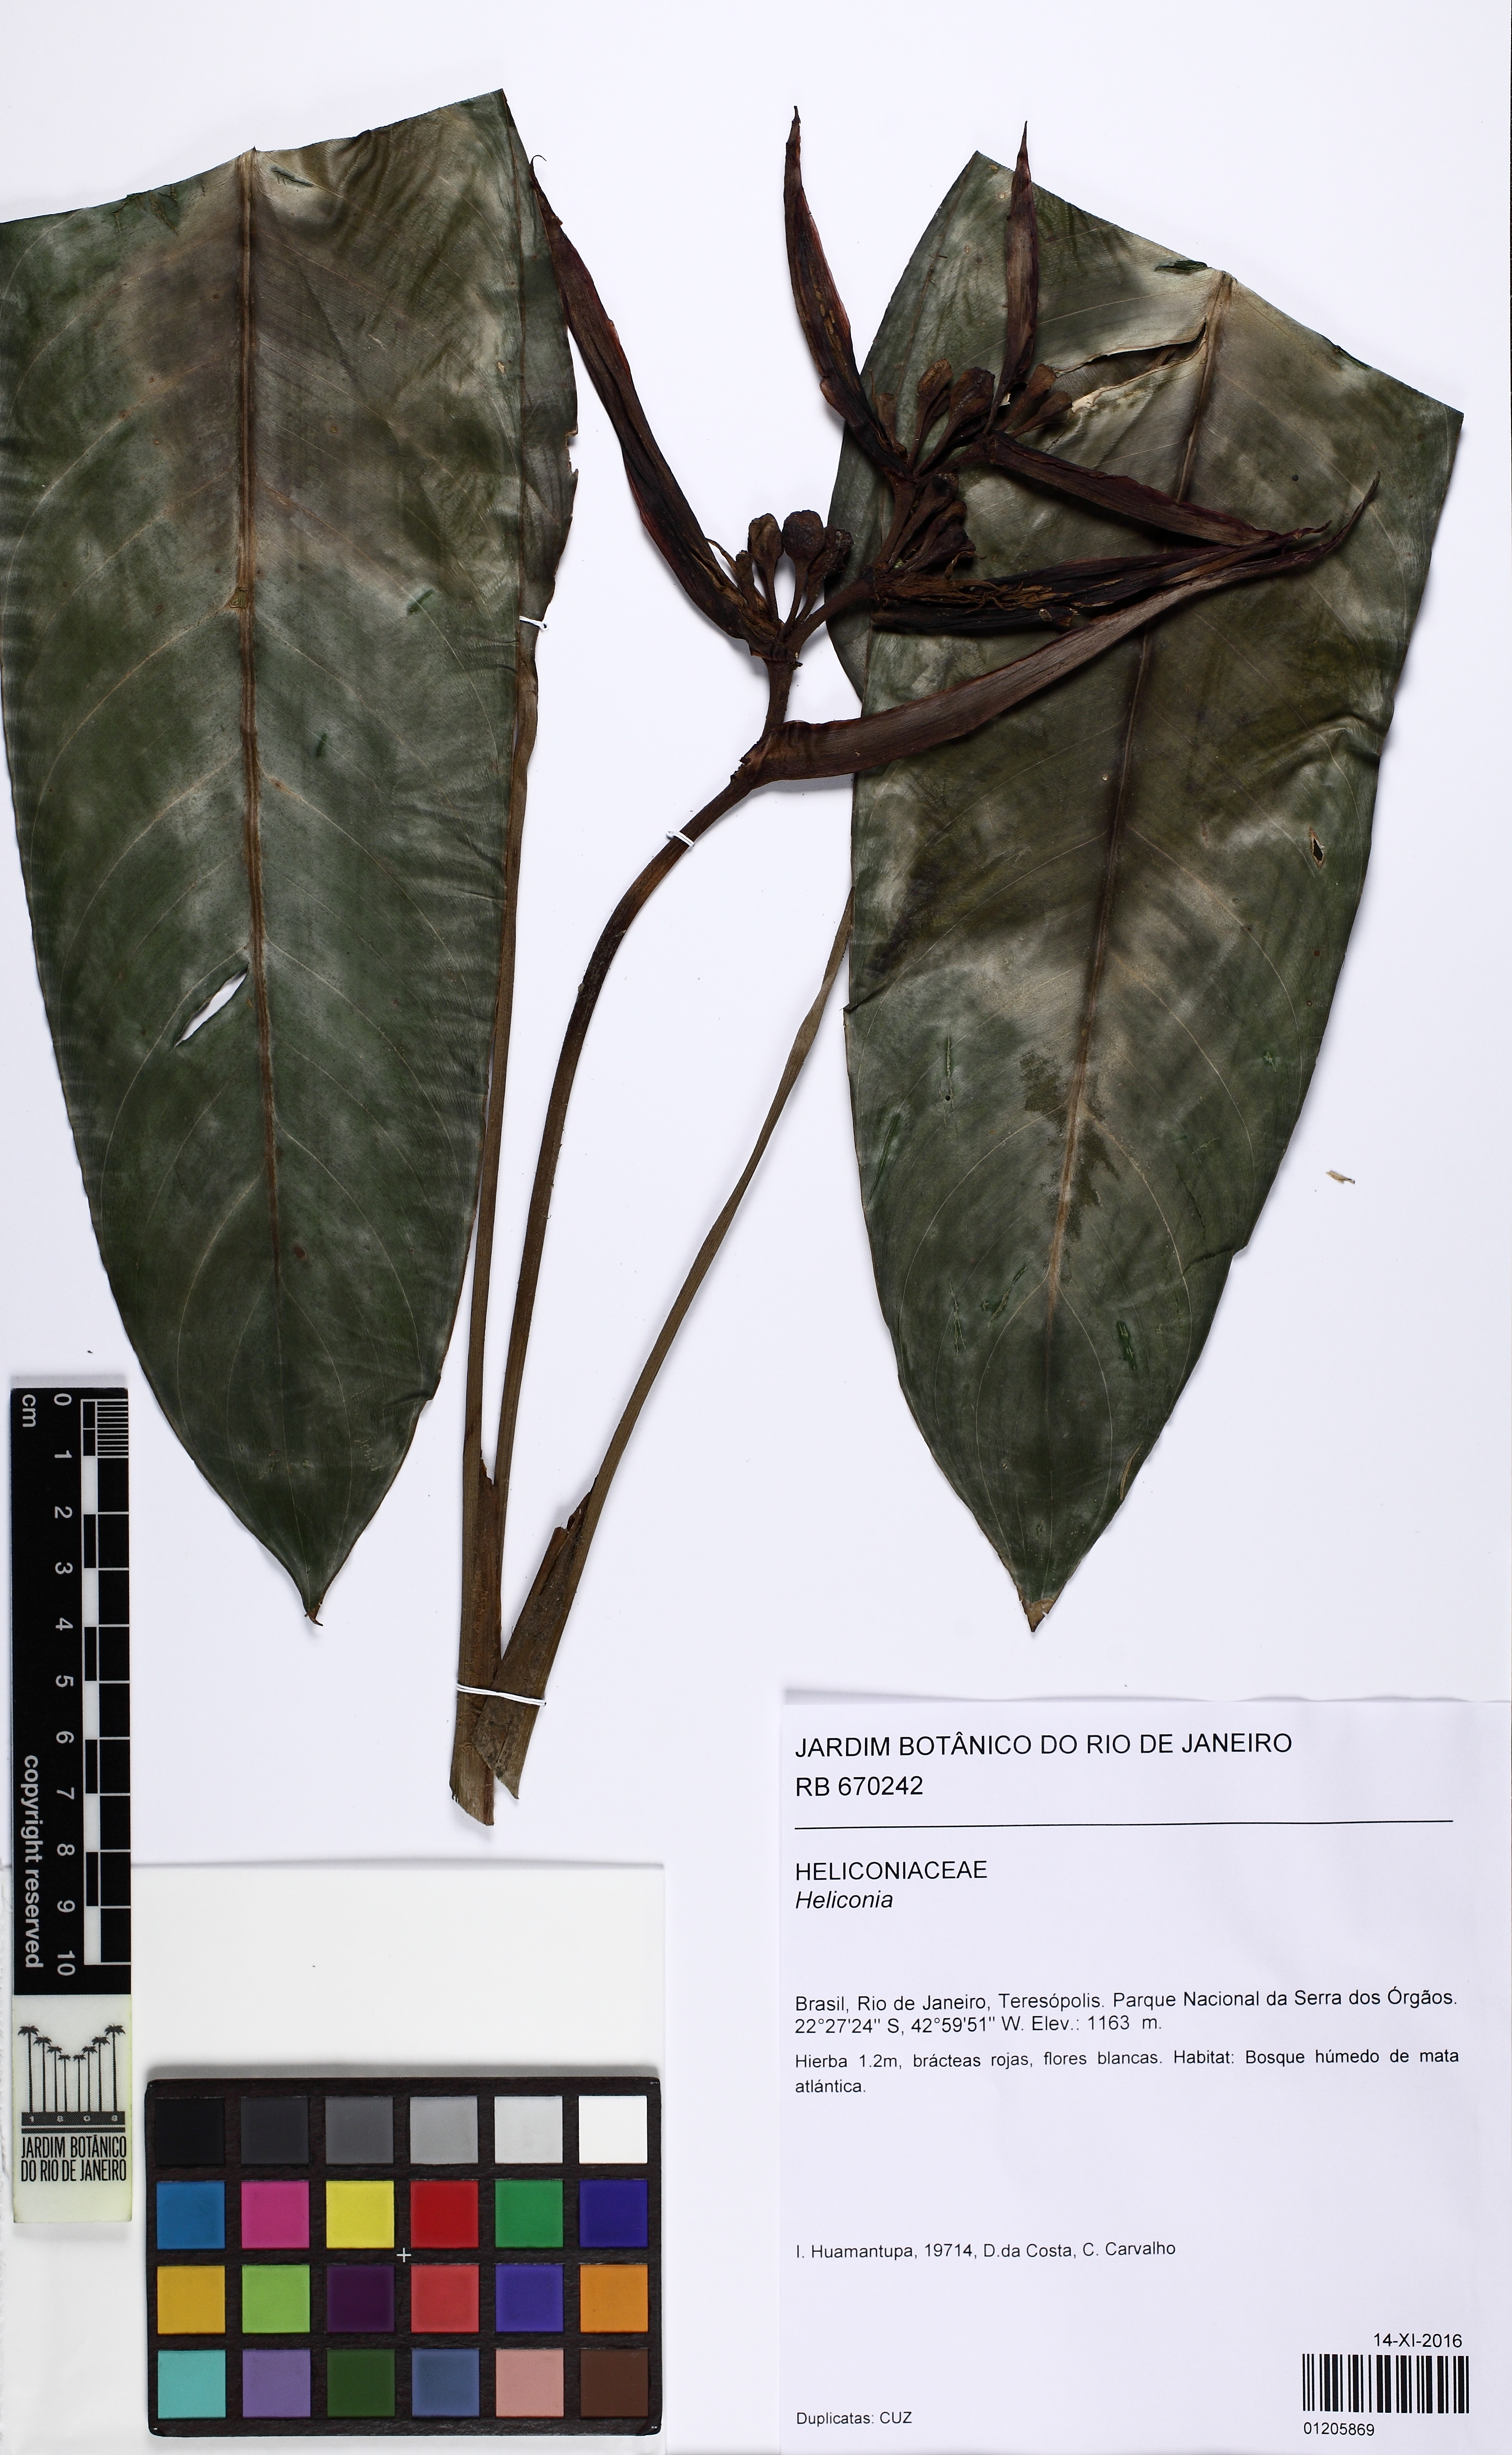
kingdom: Plantae
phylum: Tracheophyta
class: Liliopsida
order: Zingiberales
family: Heliconiaceae
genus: Heliconia
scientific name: Heliconia
